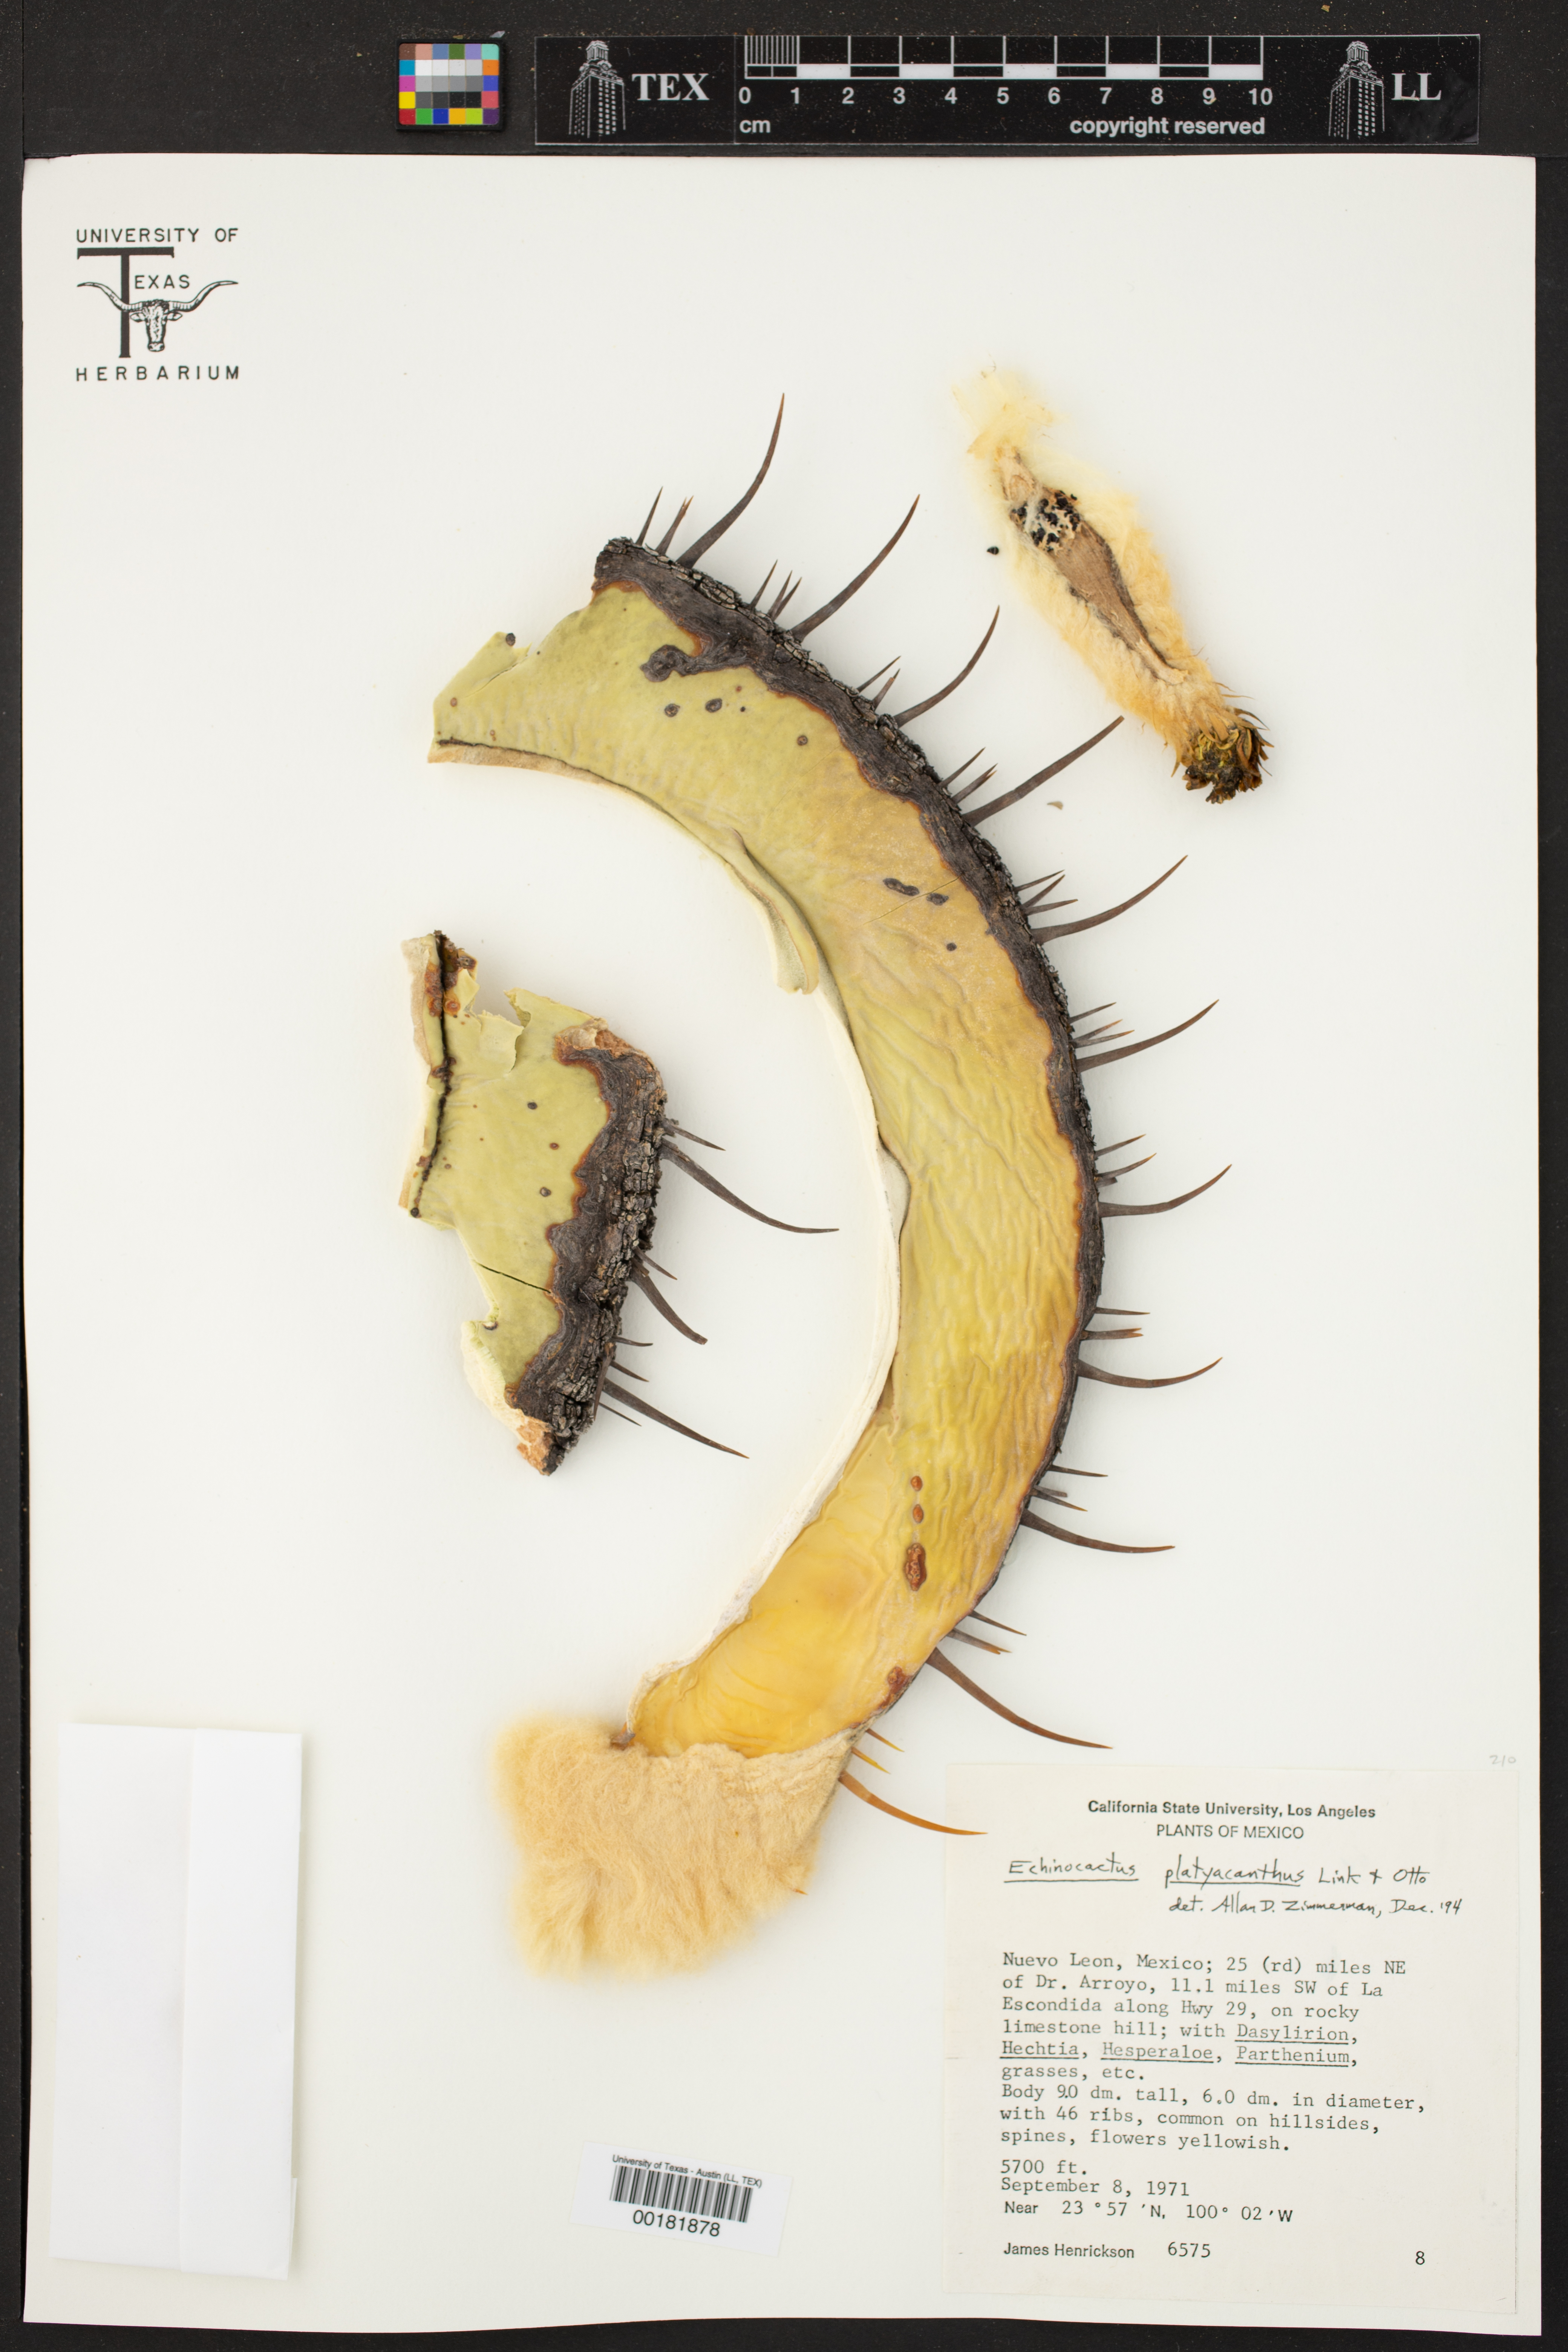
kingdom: Plantae
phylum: Tracheophyta
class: Magnoliopsida
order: Caryophyllales
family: Cactaceae
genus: Echinocactus
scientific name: Echinocactus platyacanthus
